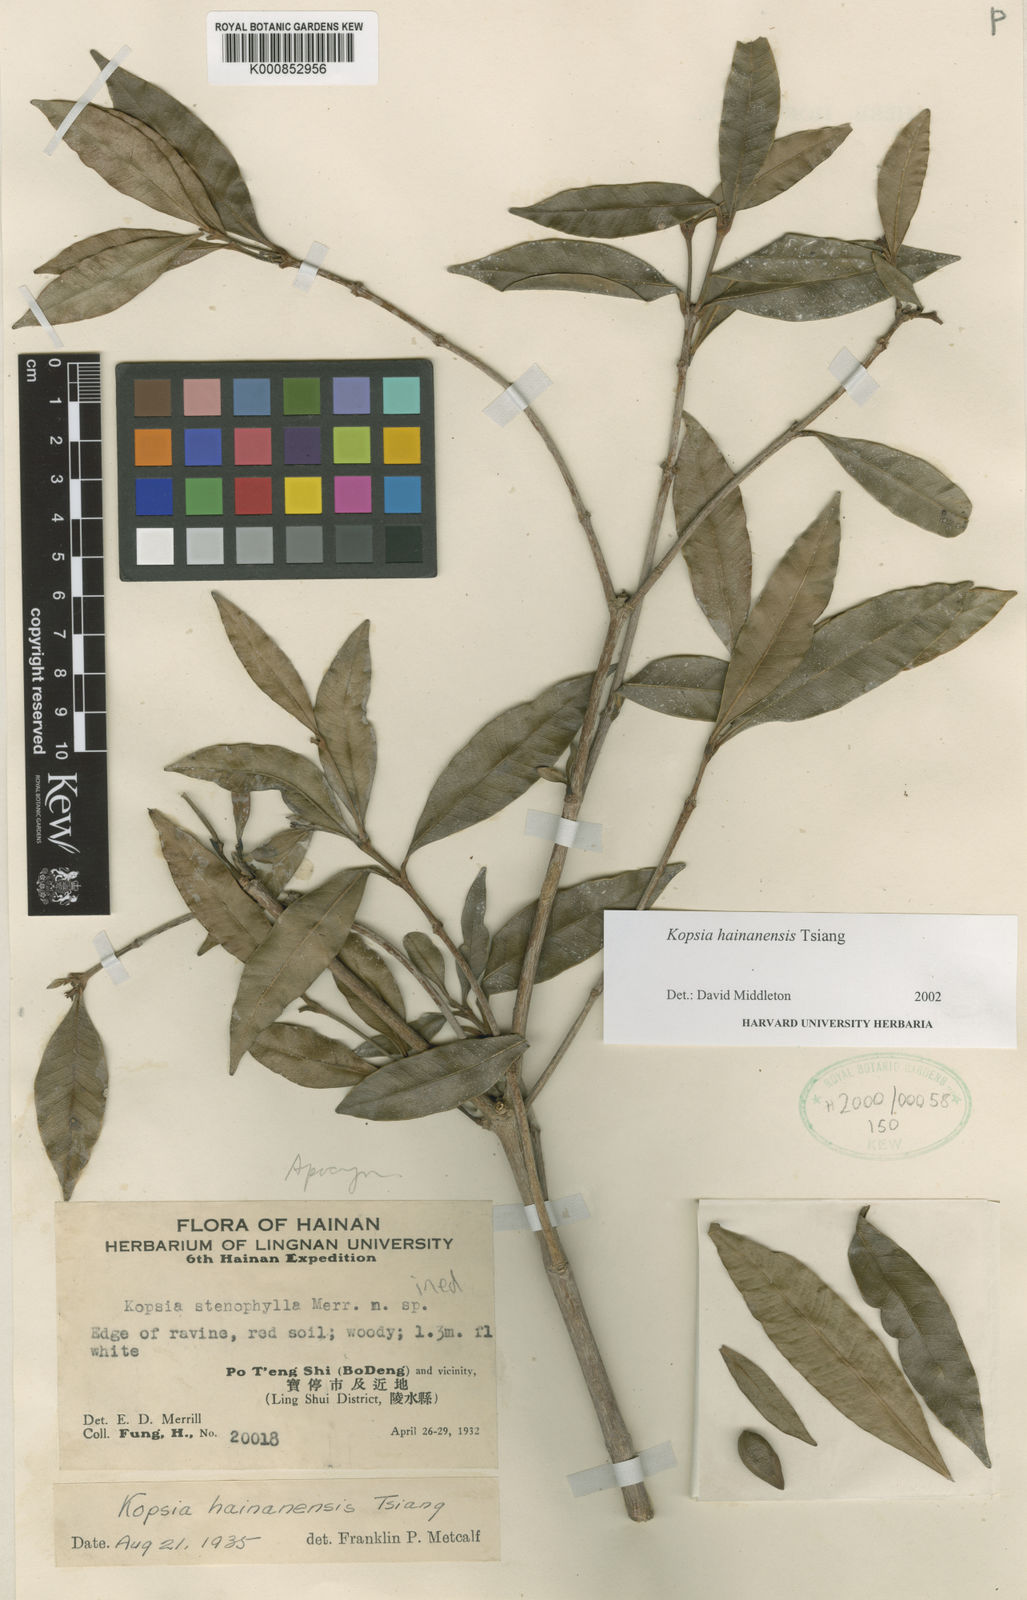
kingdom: Plantae
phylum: Tracheophyta
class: Magnoliopsida
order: Gentianales
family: Apocynaceae
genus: Kopsia
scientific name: Kopsia hainanensis
